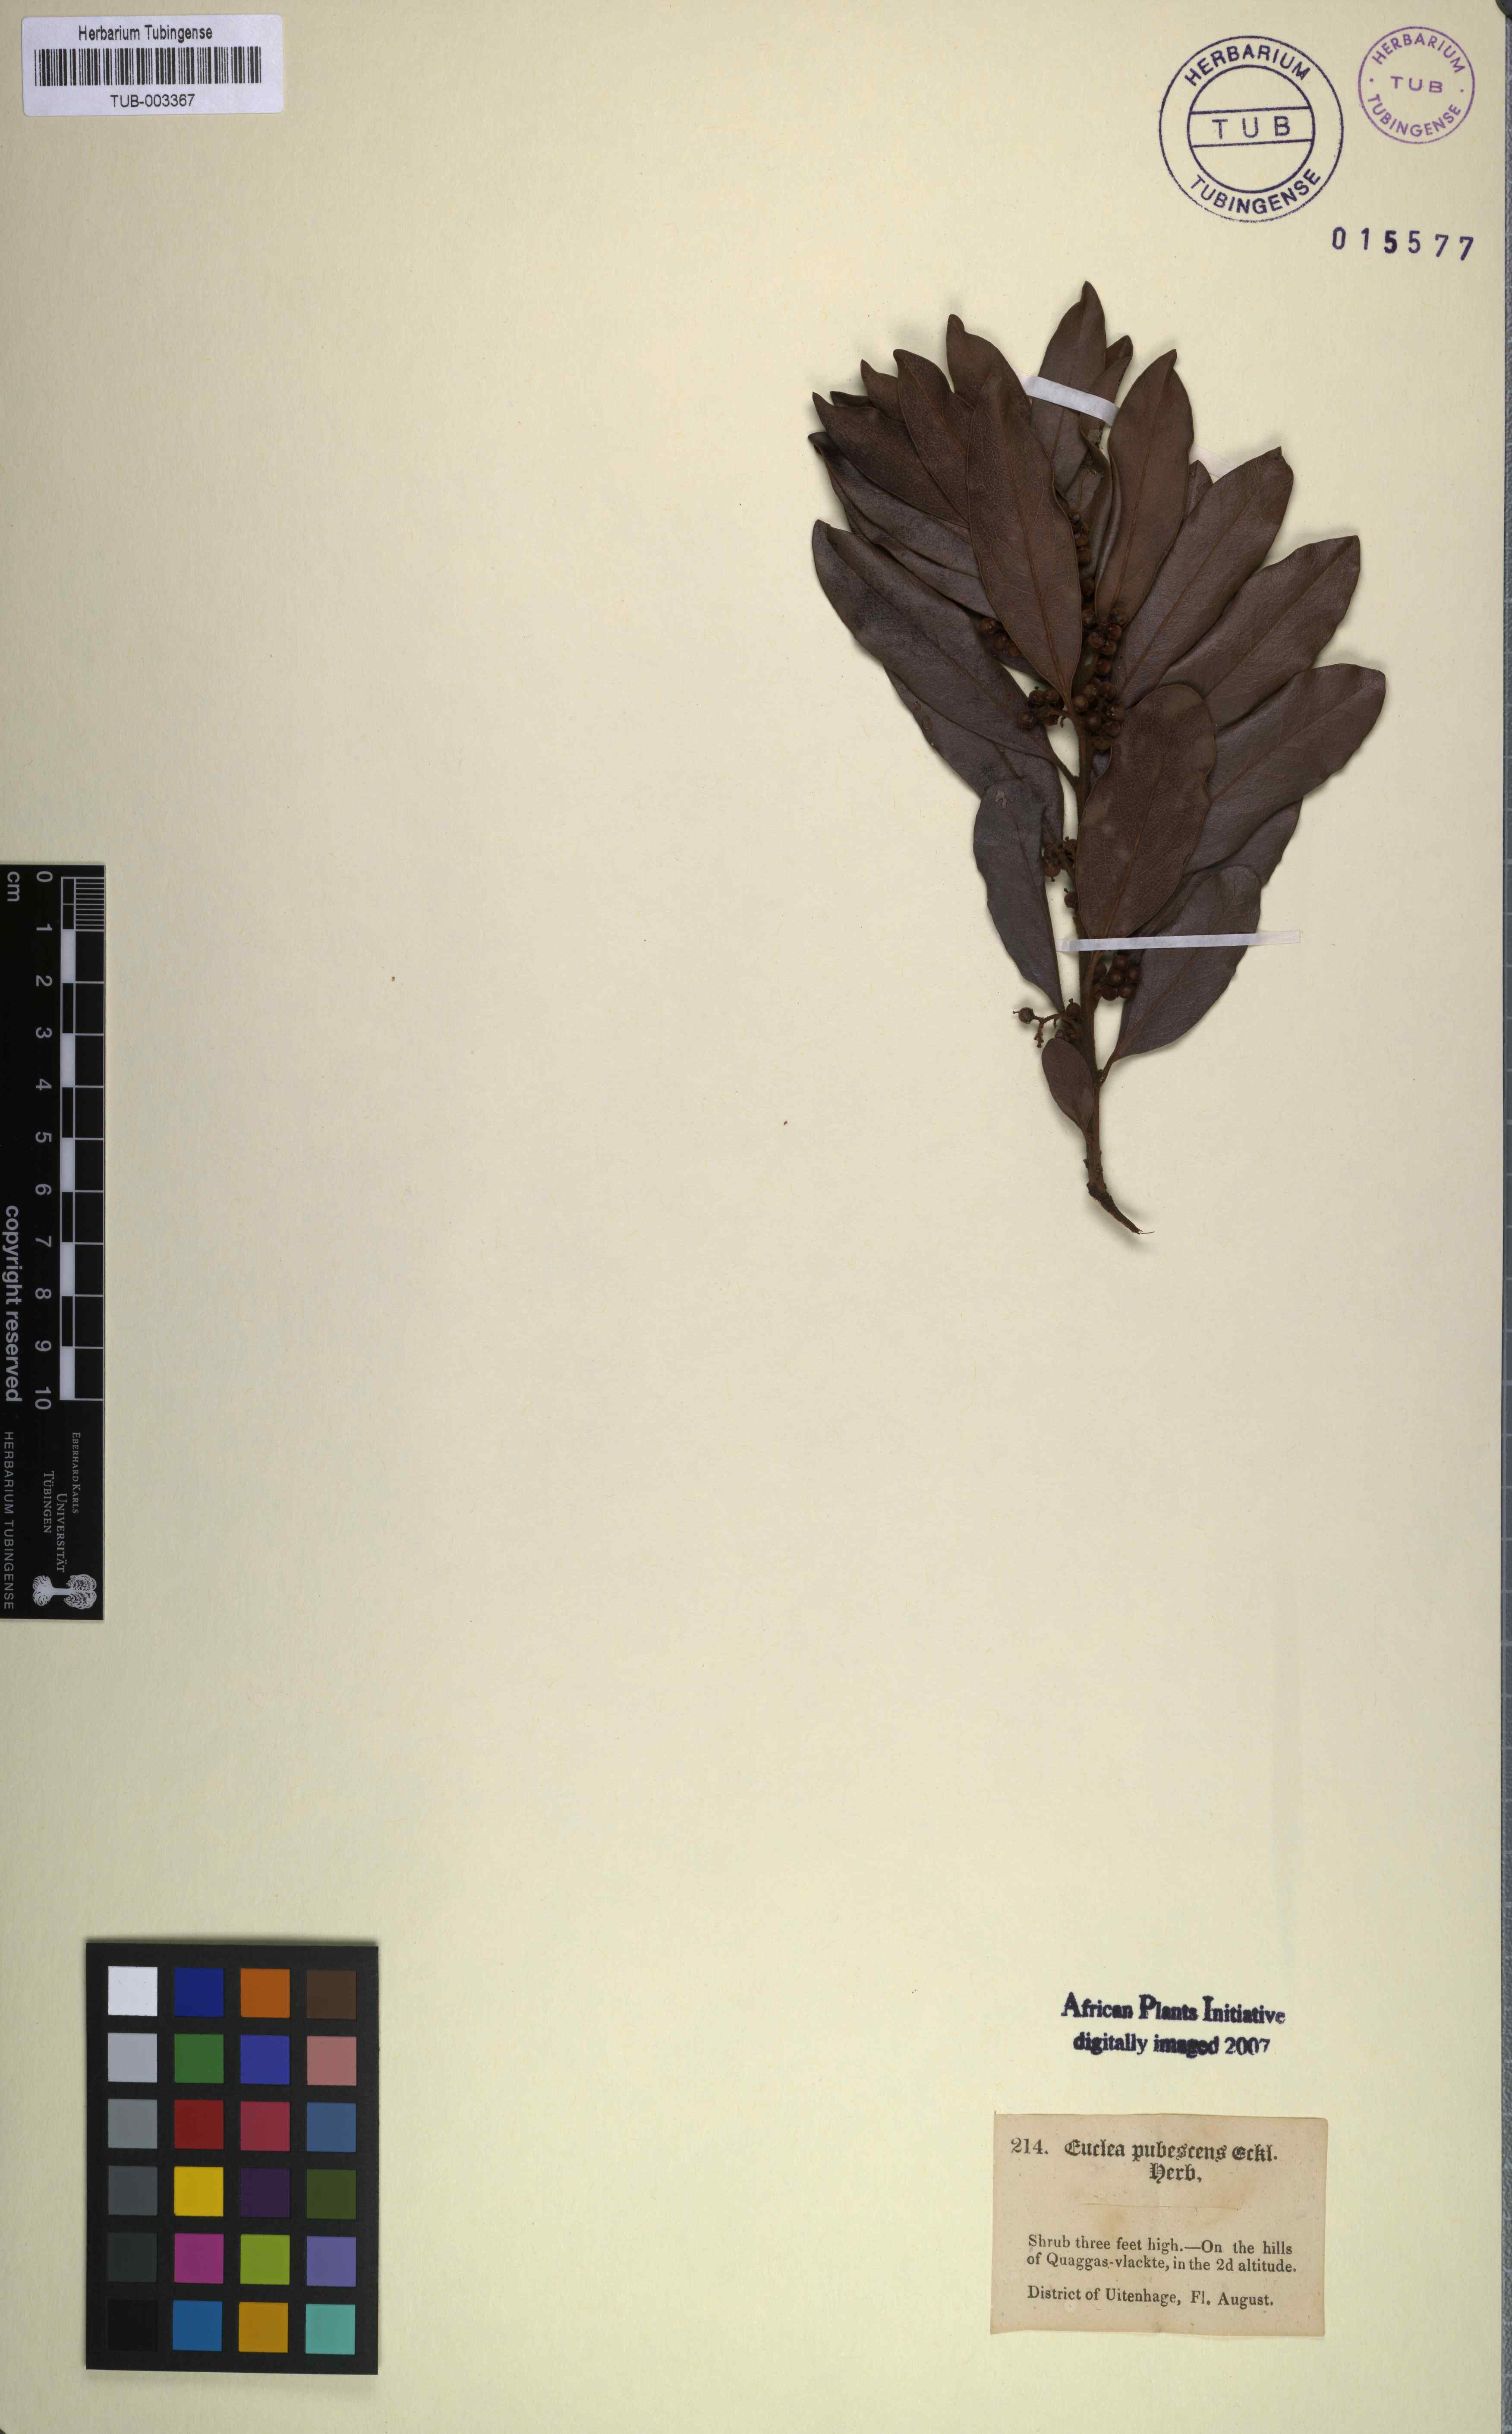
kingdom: Plantae
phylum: Tracheophyta
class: Magnoliopsida
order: Ericales
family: Ebenaceae
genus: Euclea
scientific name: Euclea polyandra
